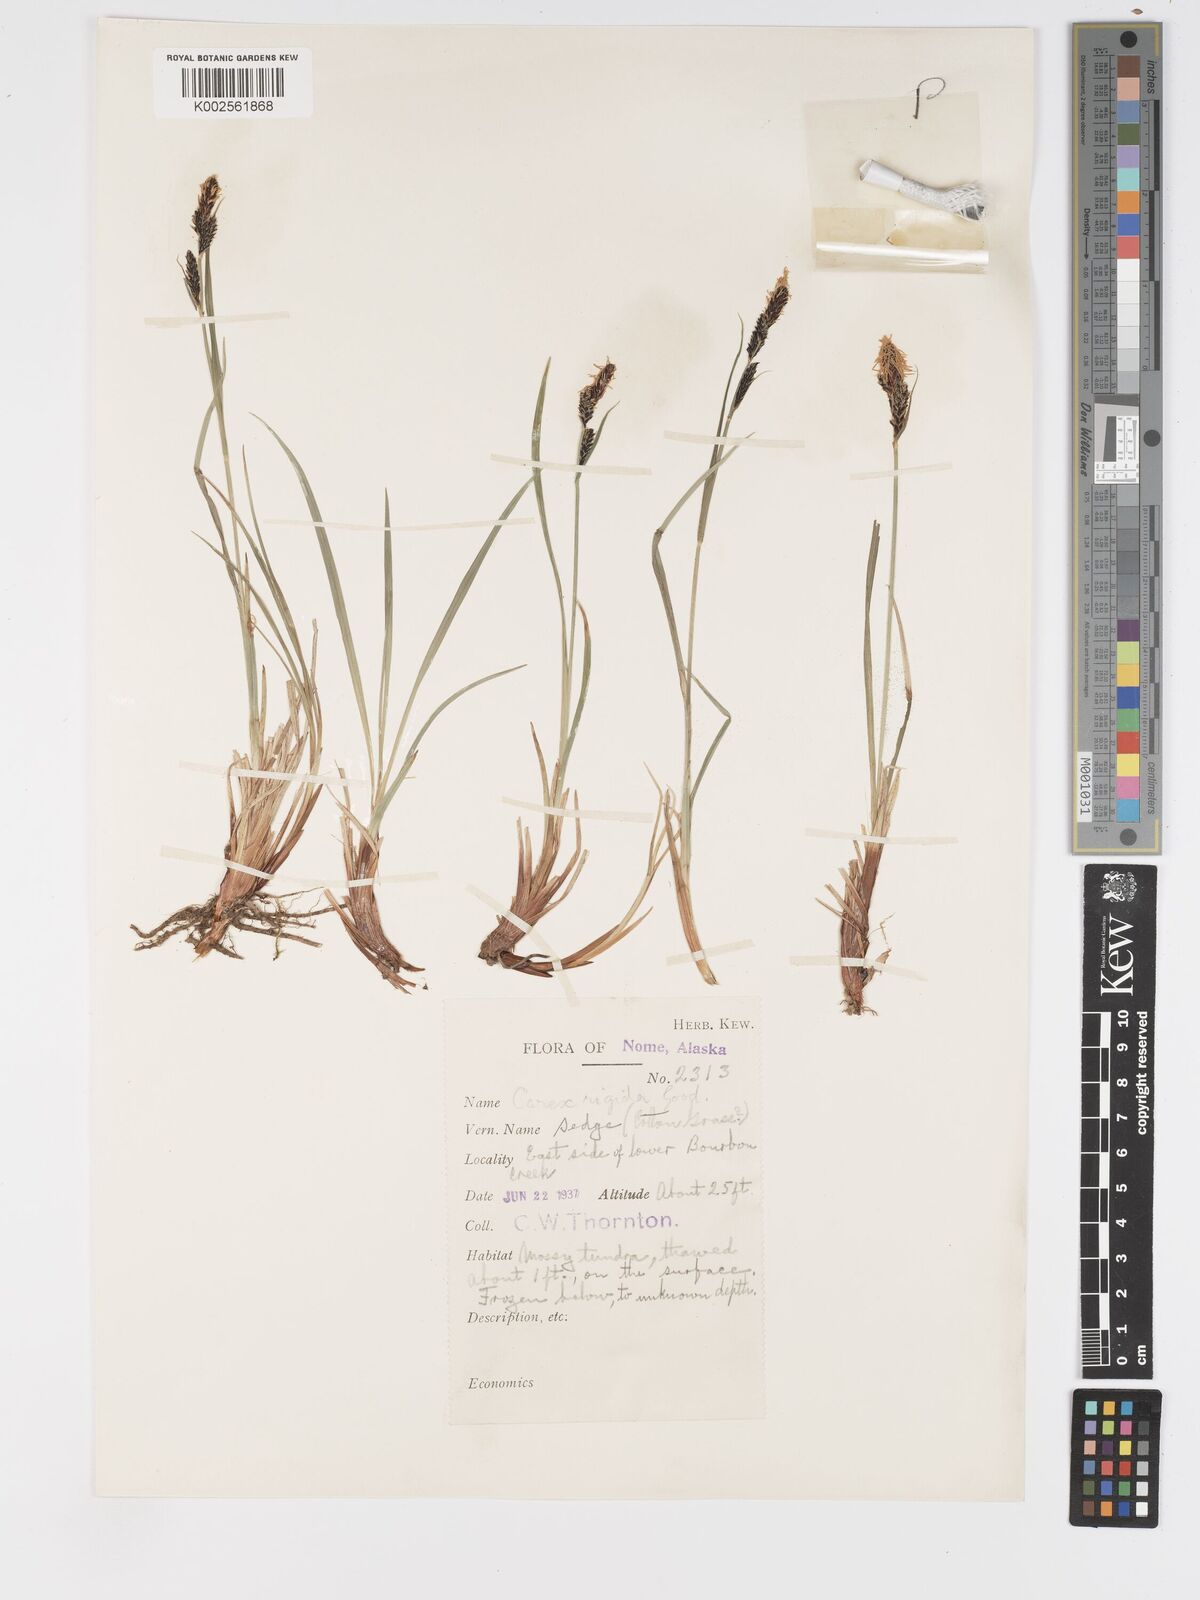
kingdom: Plantae
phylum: Tracheophyta
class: Liliopsida
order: Poales
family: Cyperaceae
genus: Carex
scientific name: Carex bigelowii
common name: Stiff sedge
